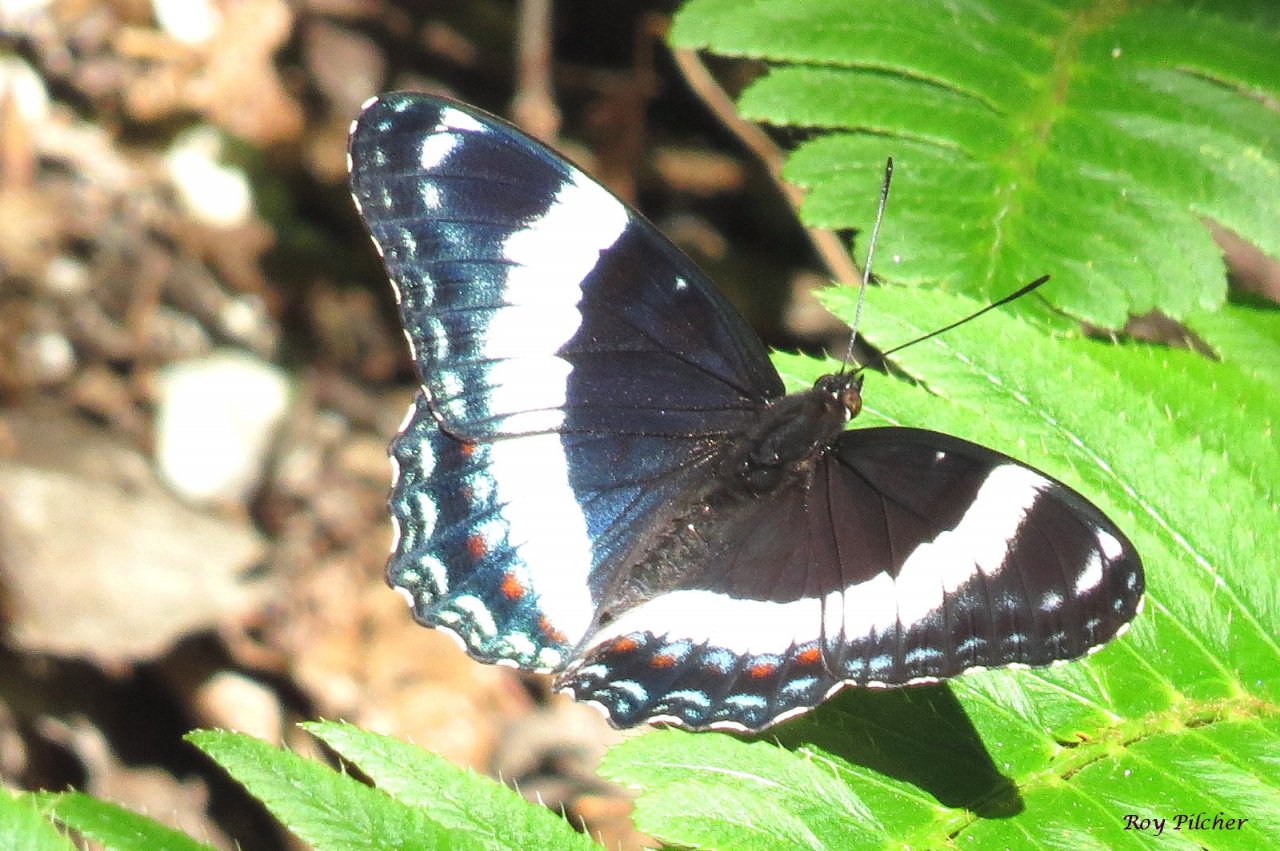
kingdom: Animalia
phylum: Arthropoda
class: Insecta
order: Lepidoptera
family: Nymphalidae
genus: Limenitis
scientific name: Limenitis arthemis
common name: Red-spotted Admiral
